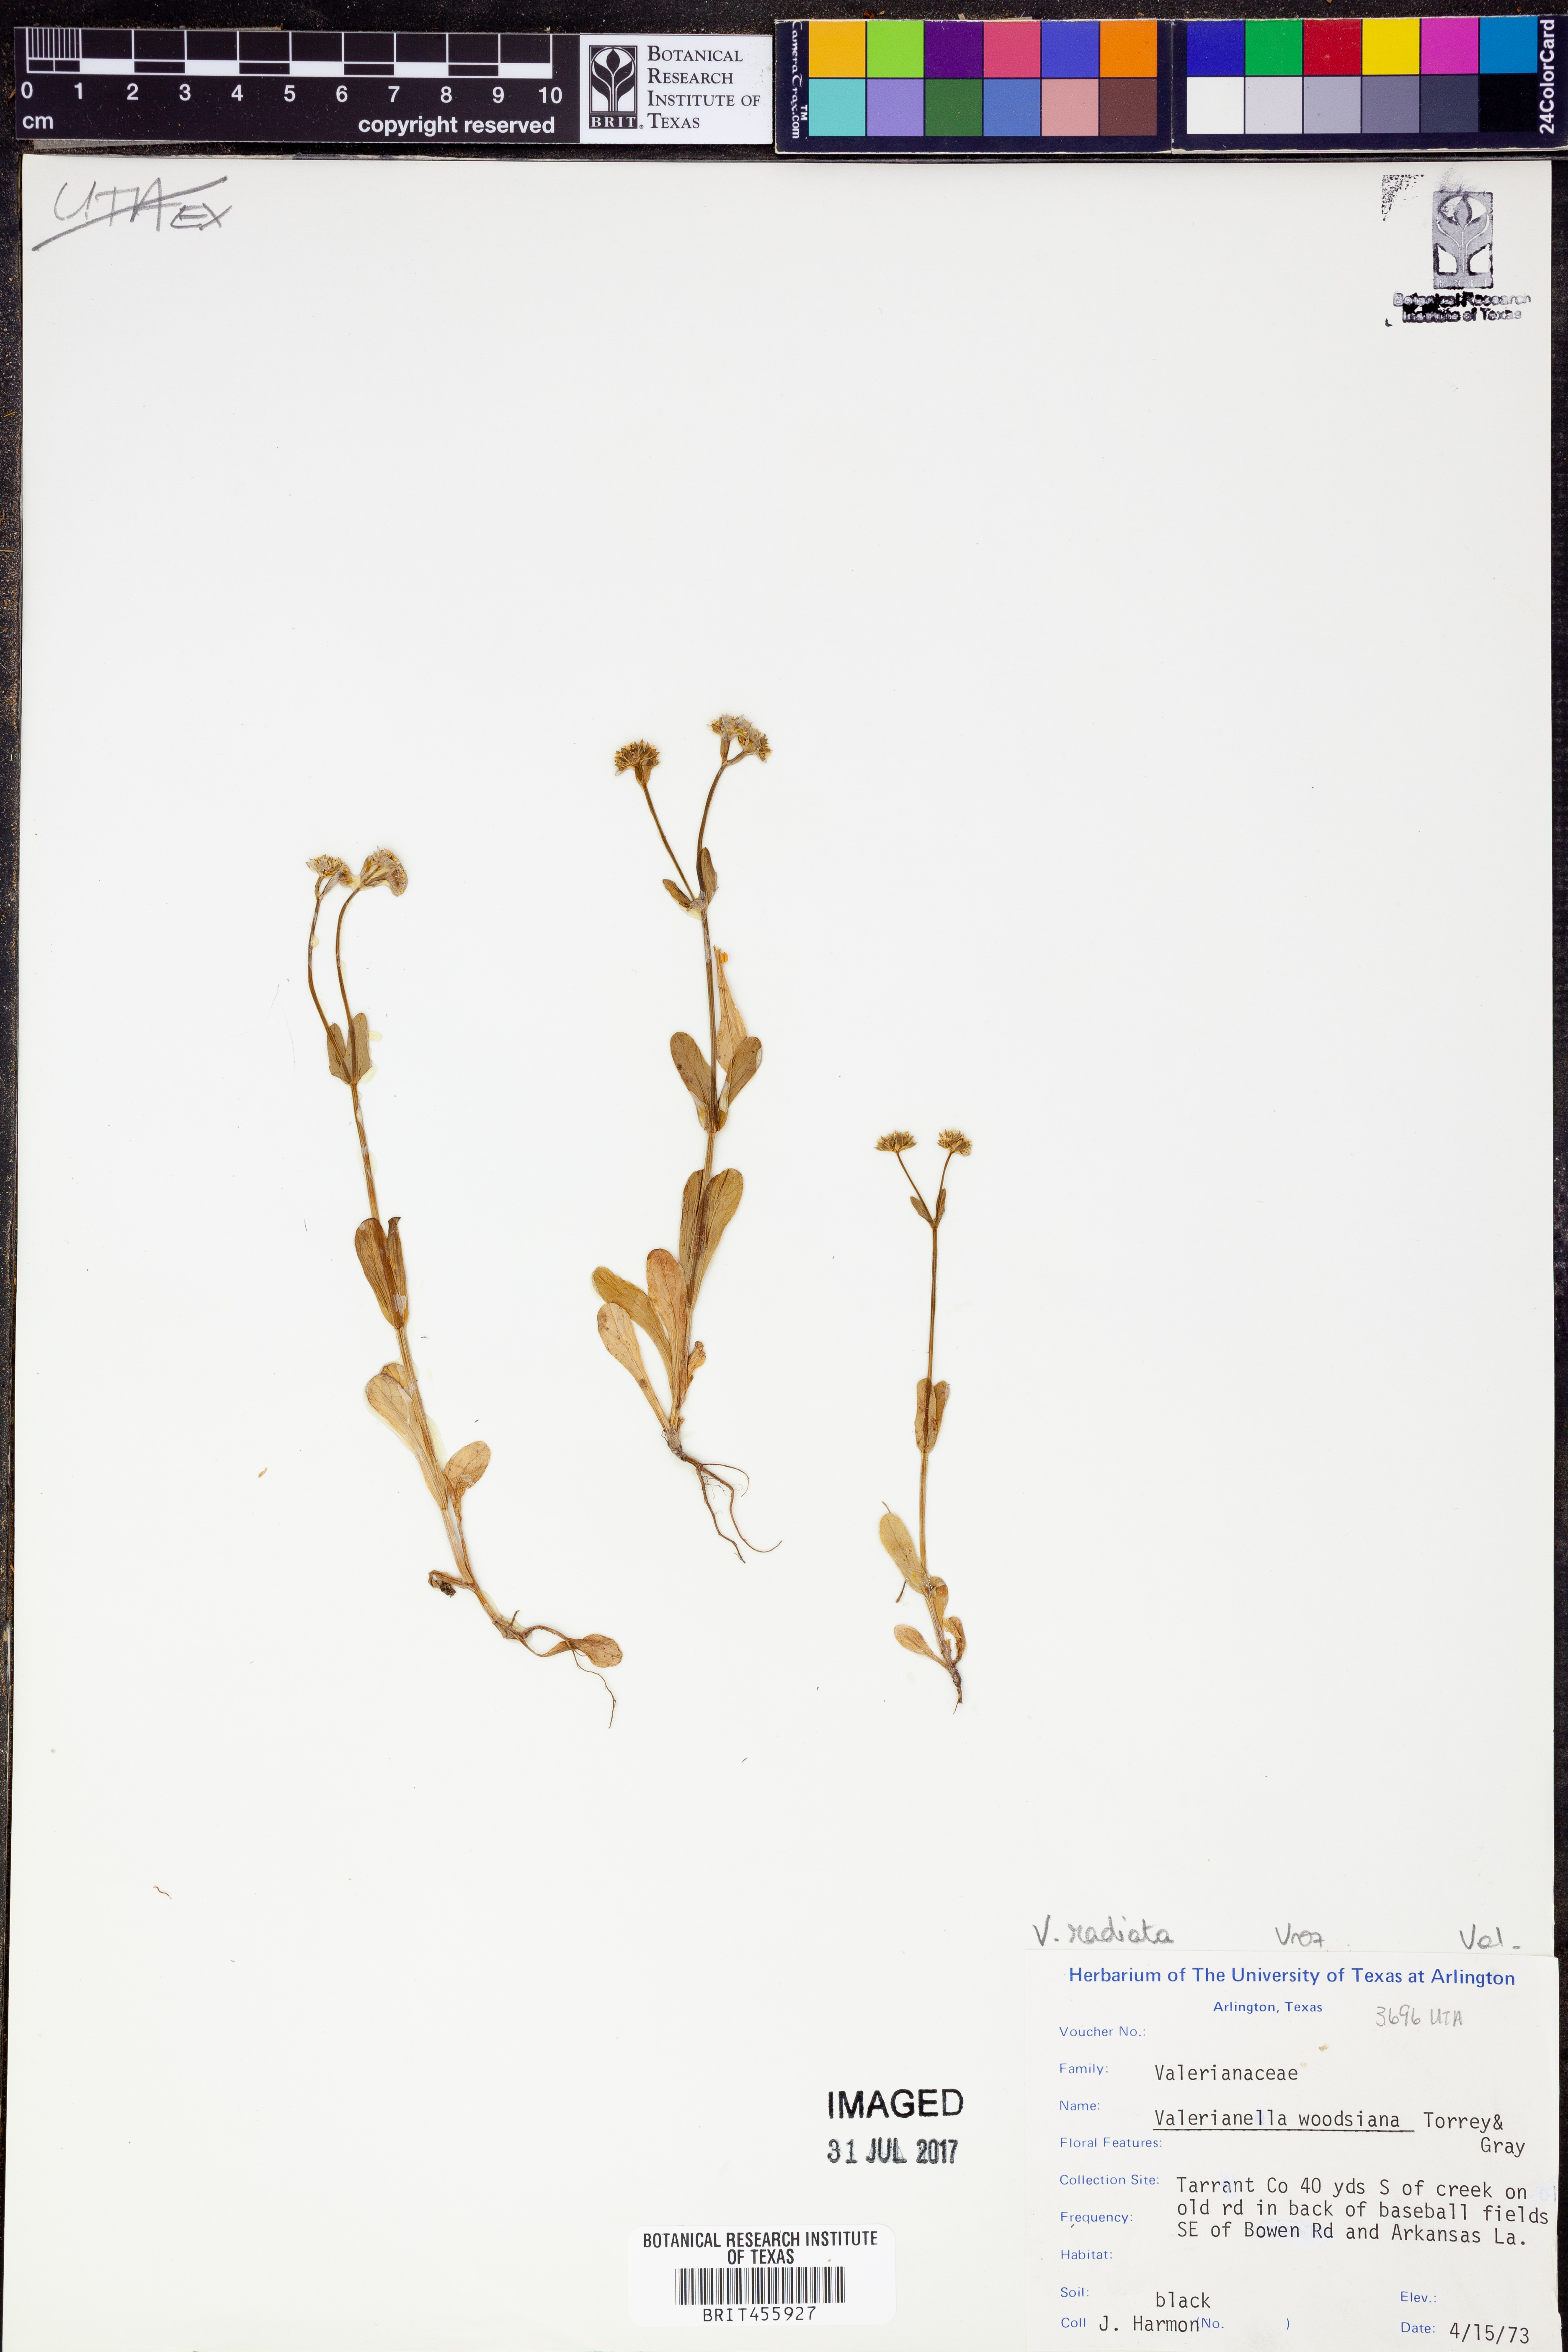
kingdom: Plantae
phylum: Tracheophyta
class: Magnoliopsida
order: Dipsacales
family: Caprifoliaceae
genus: Valerianella
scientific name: Valerianella radiata
